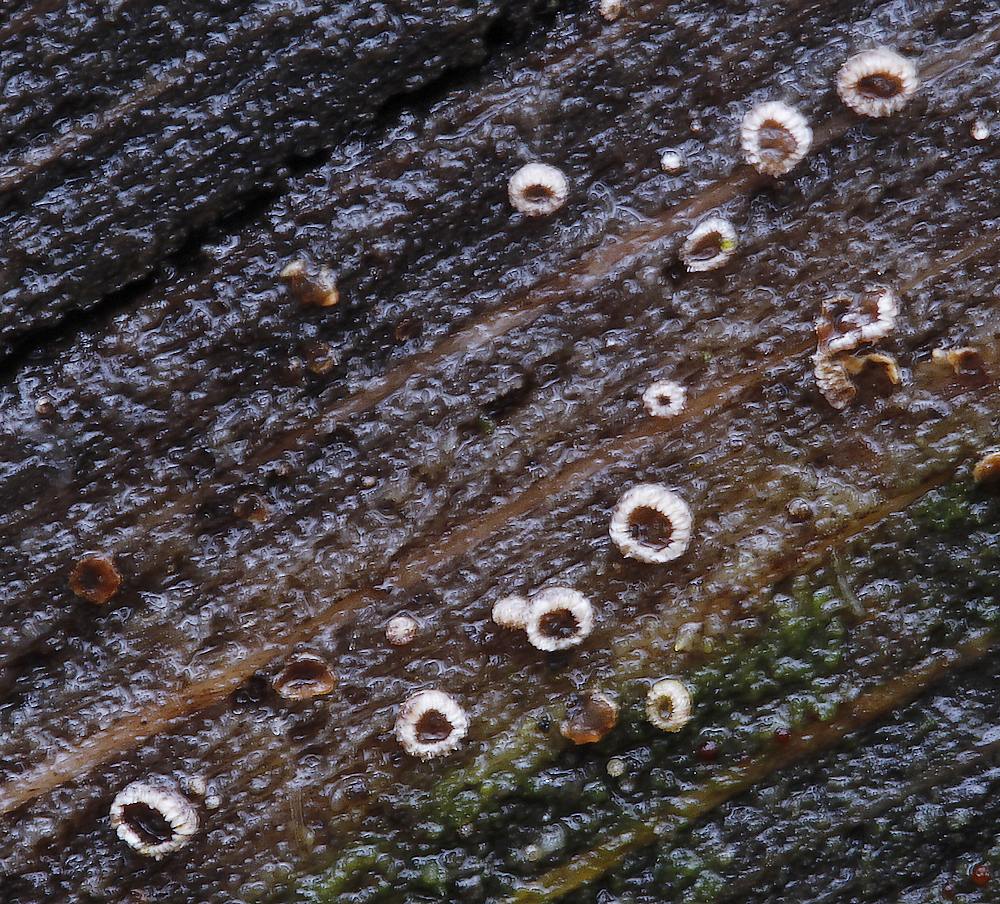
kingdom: Fungi
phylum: Ascomycota
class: Leotiomycetes
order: Helotiales
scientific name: Helotiales
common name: stilkskiveordenen
